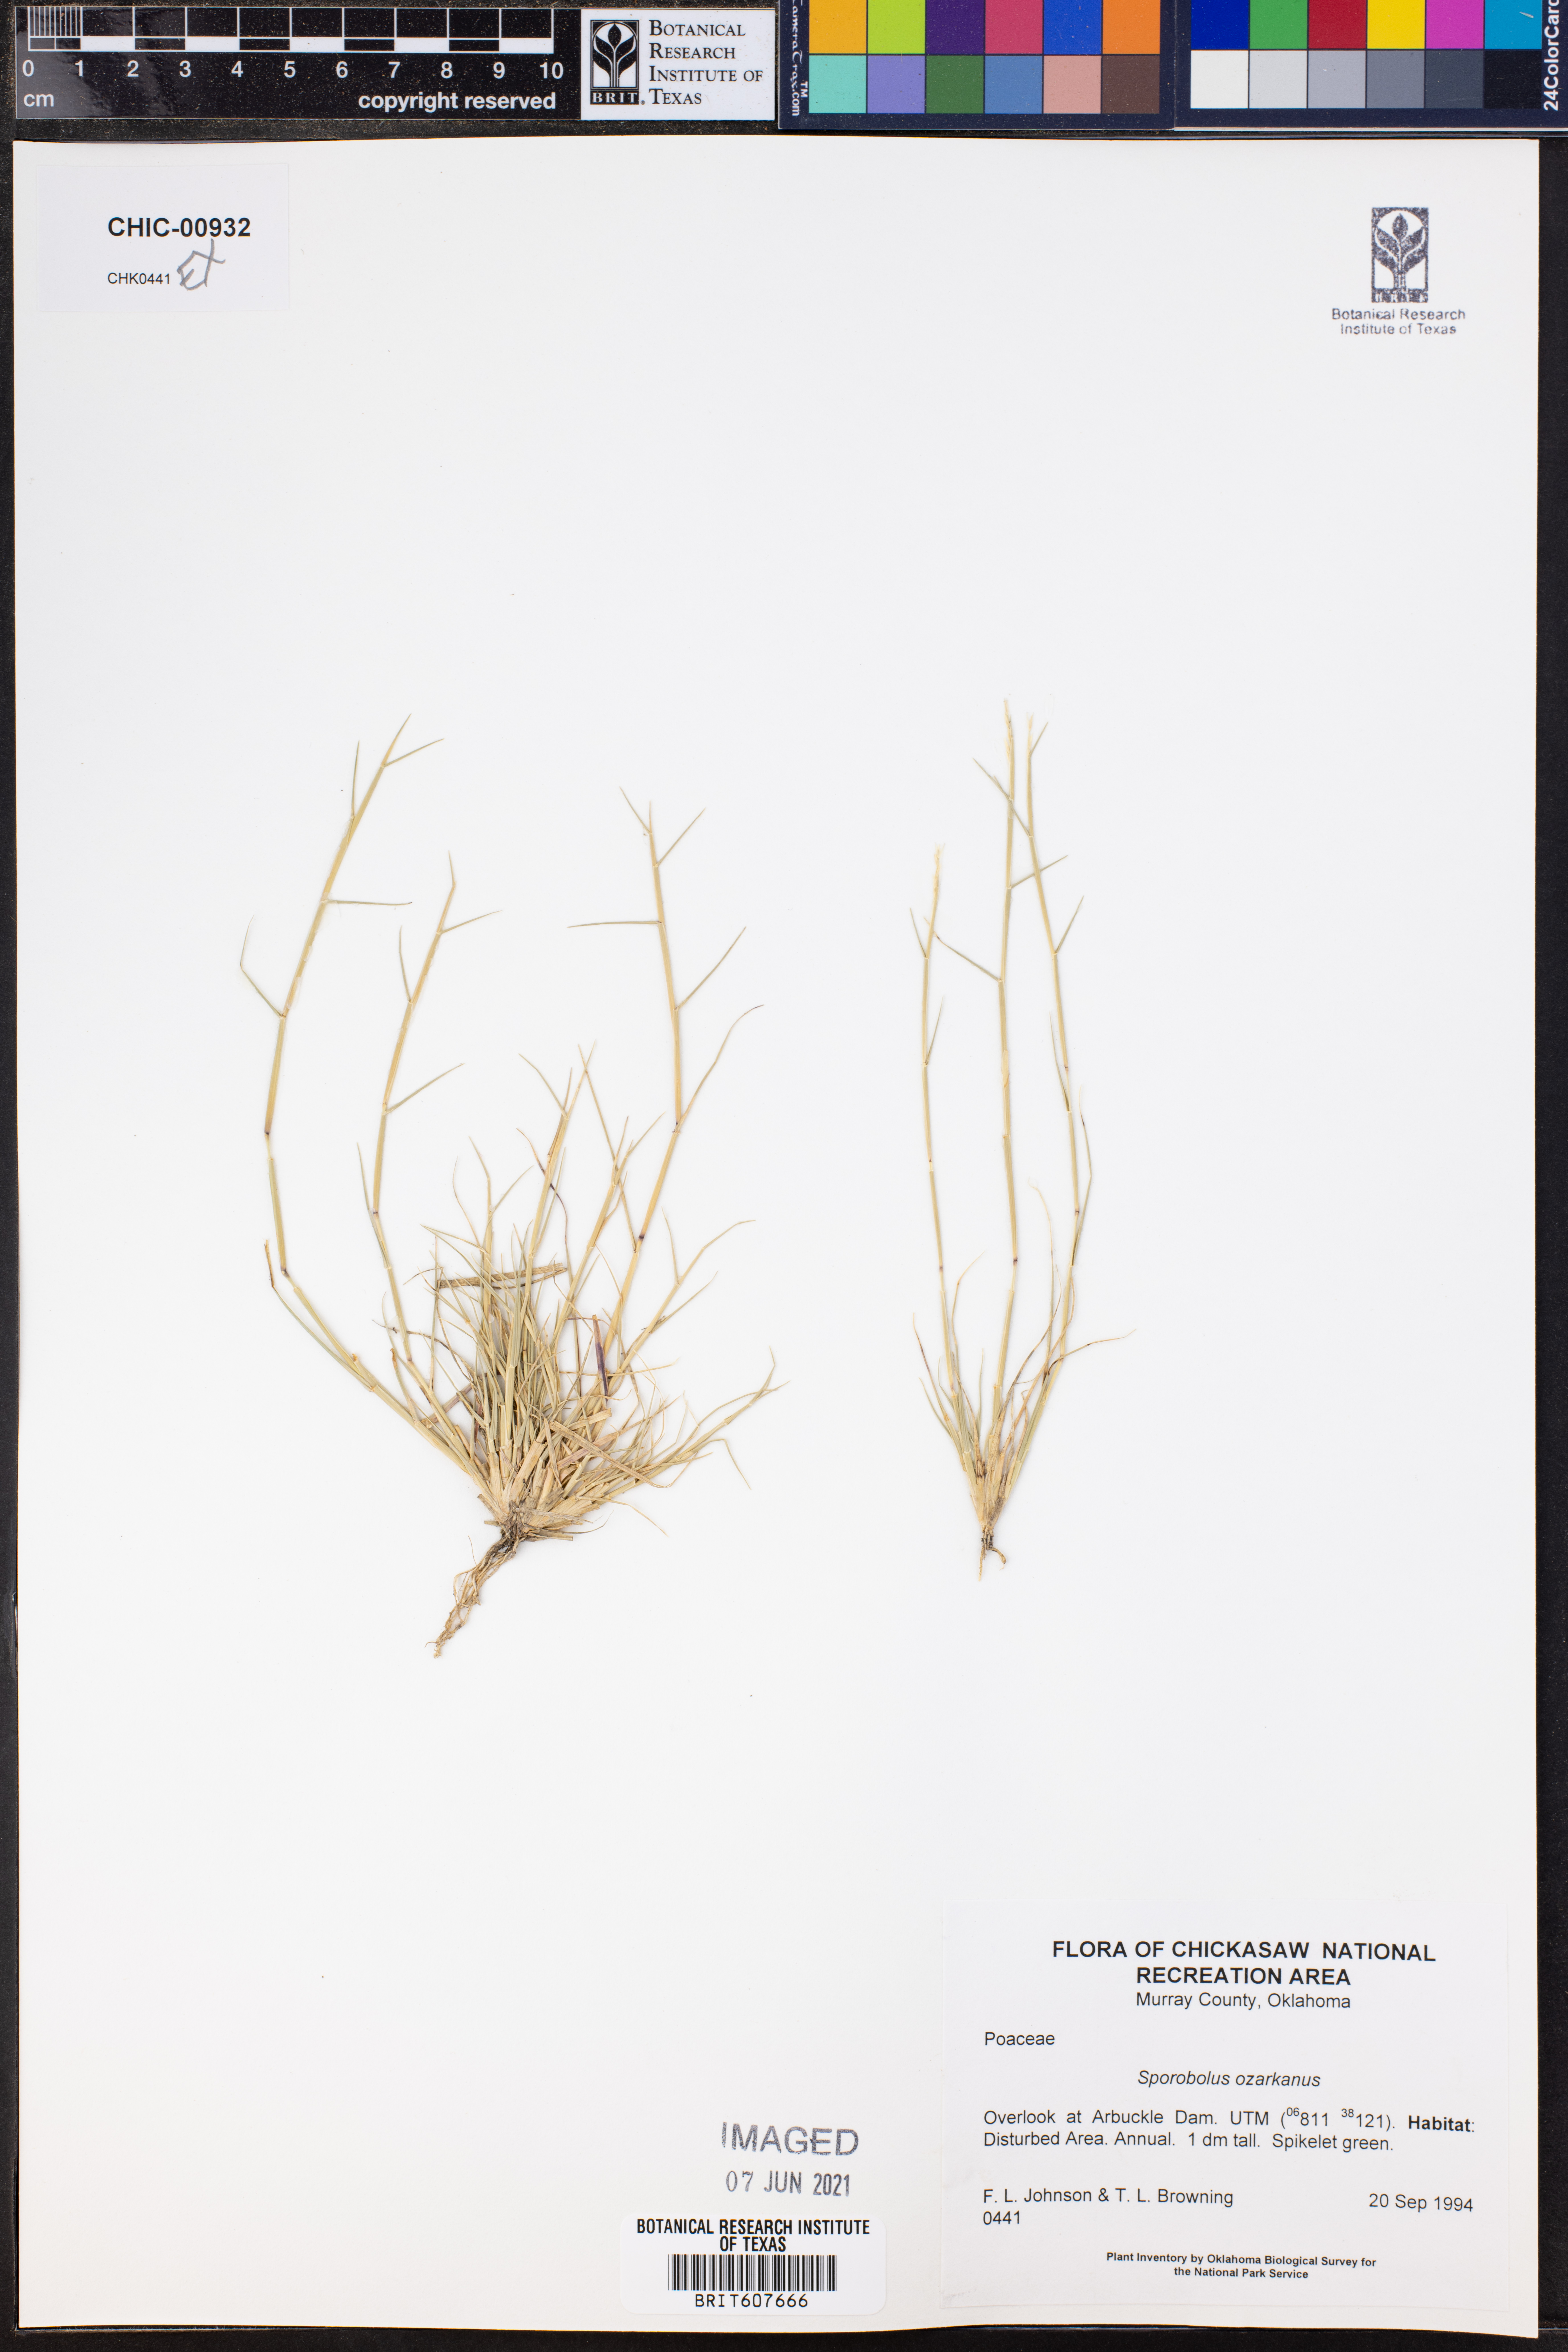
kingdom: Plantae
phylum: Tracheophyta
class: Liliopsida
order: Poales
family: Poaceae
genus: Sporobolus
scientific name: Sporobolus neglectus
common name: Annual dropseed
